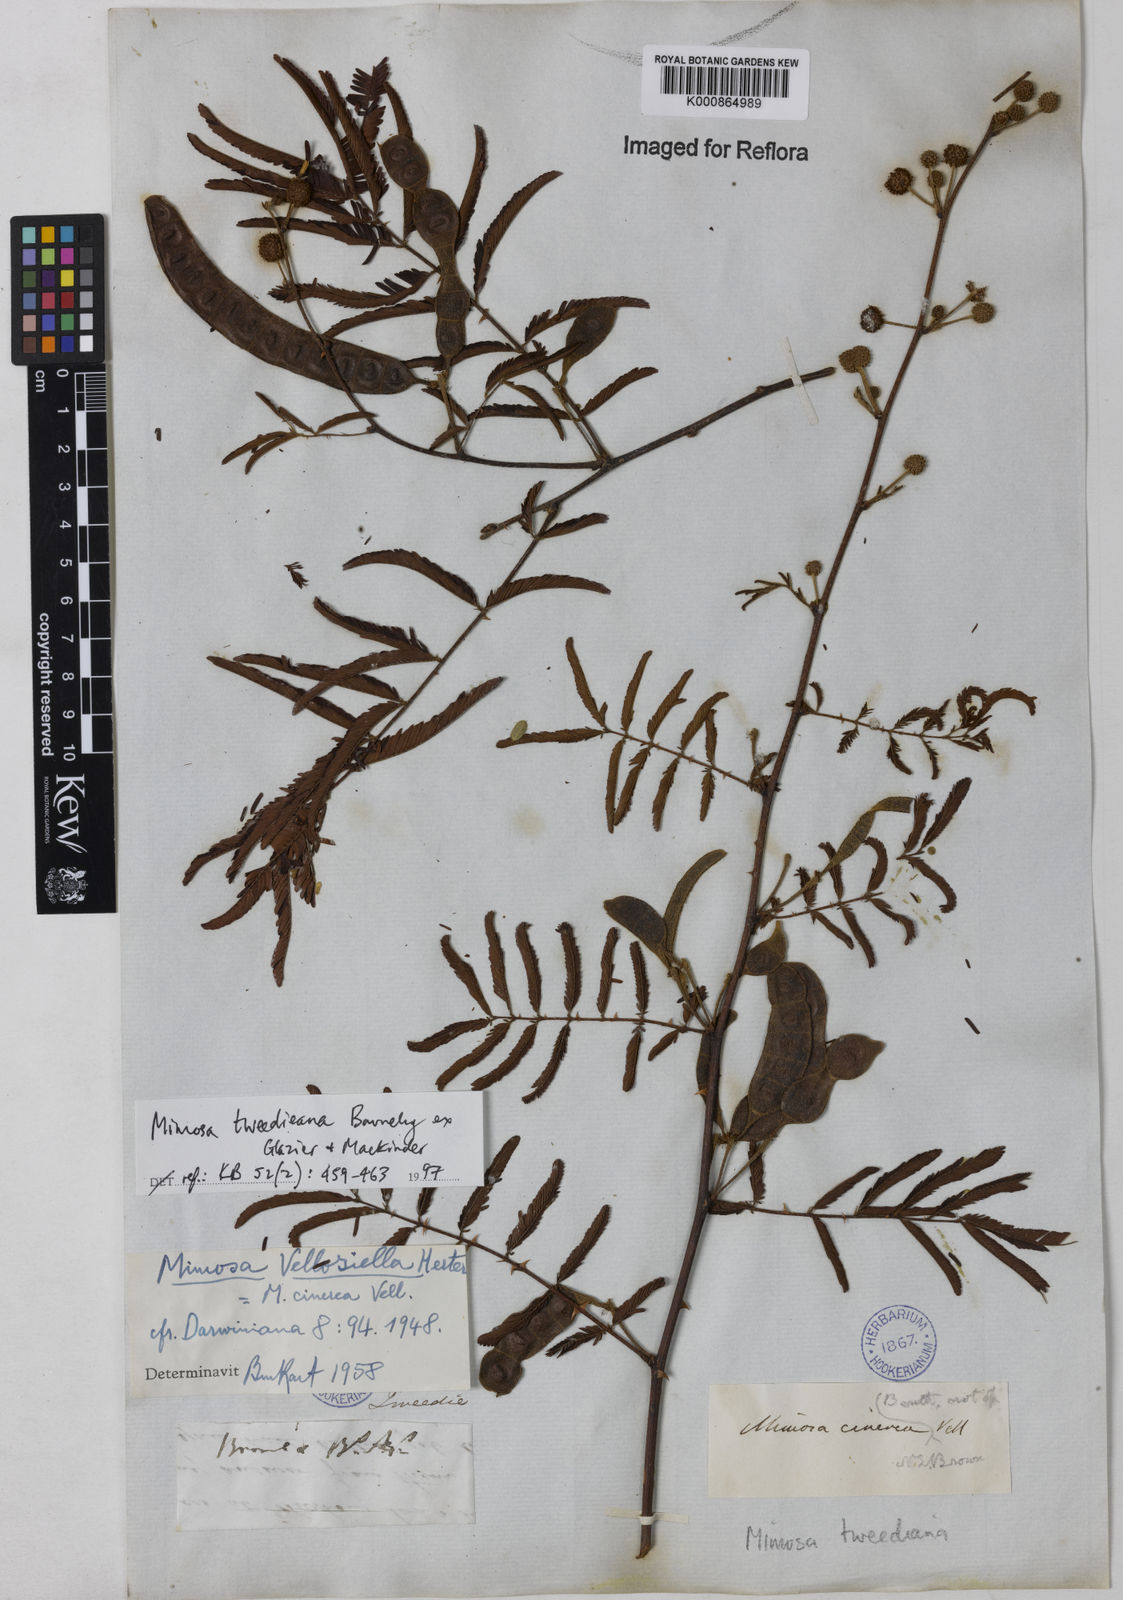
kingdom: Plantae
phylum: Tracheophyta
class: Magnoliopsida
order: Fabales
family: Fabaceae
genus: Mimosa
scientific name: Mimosa tweedieana
